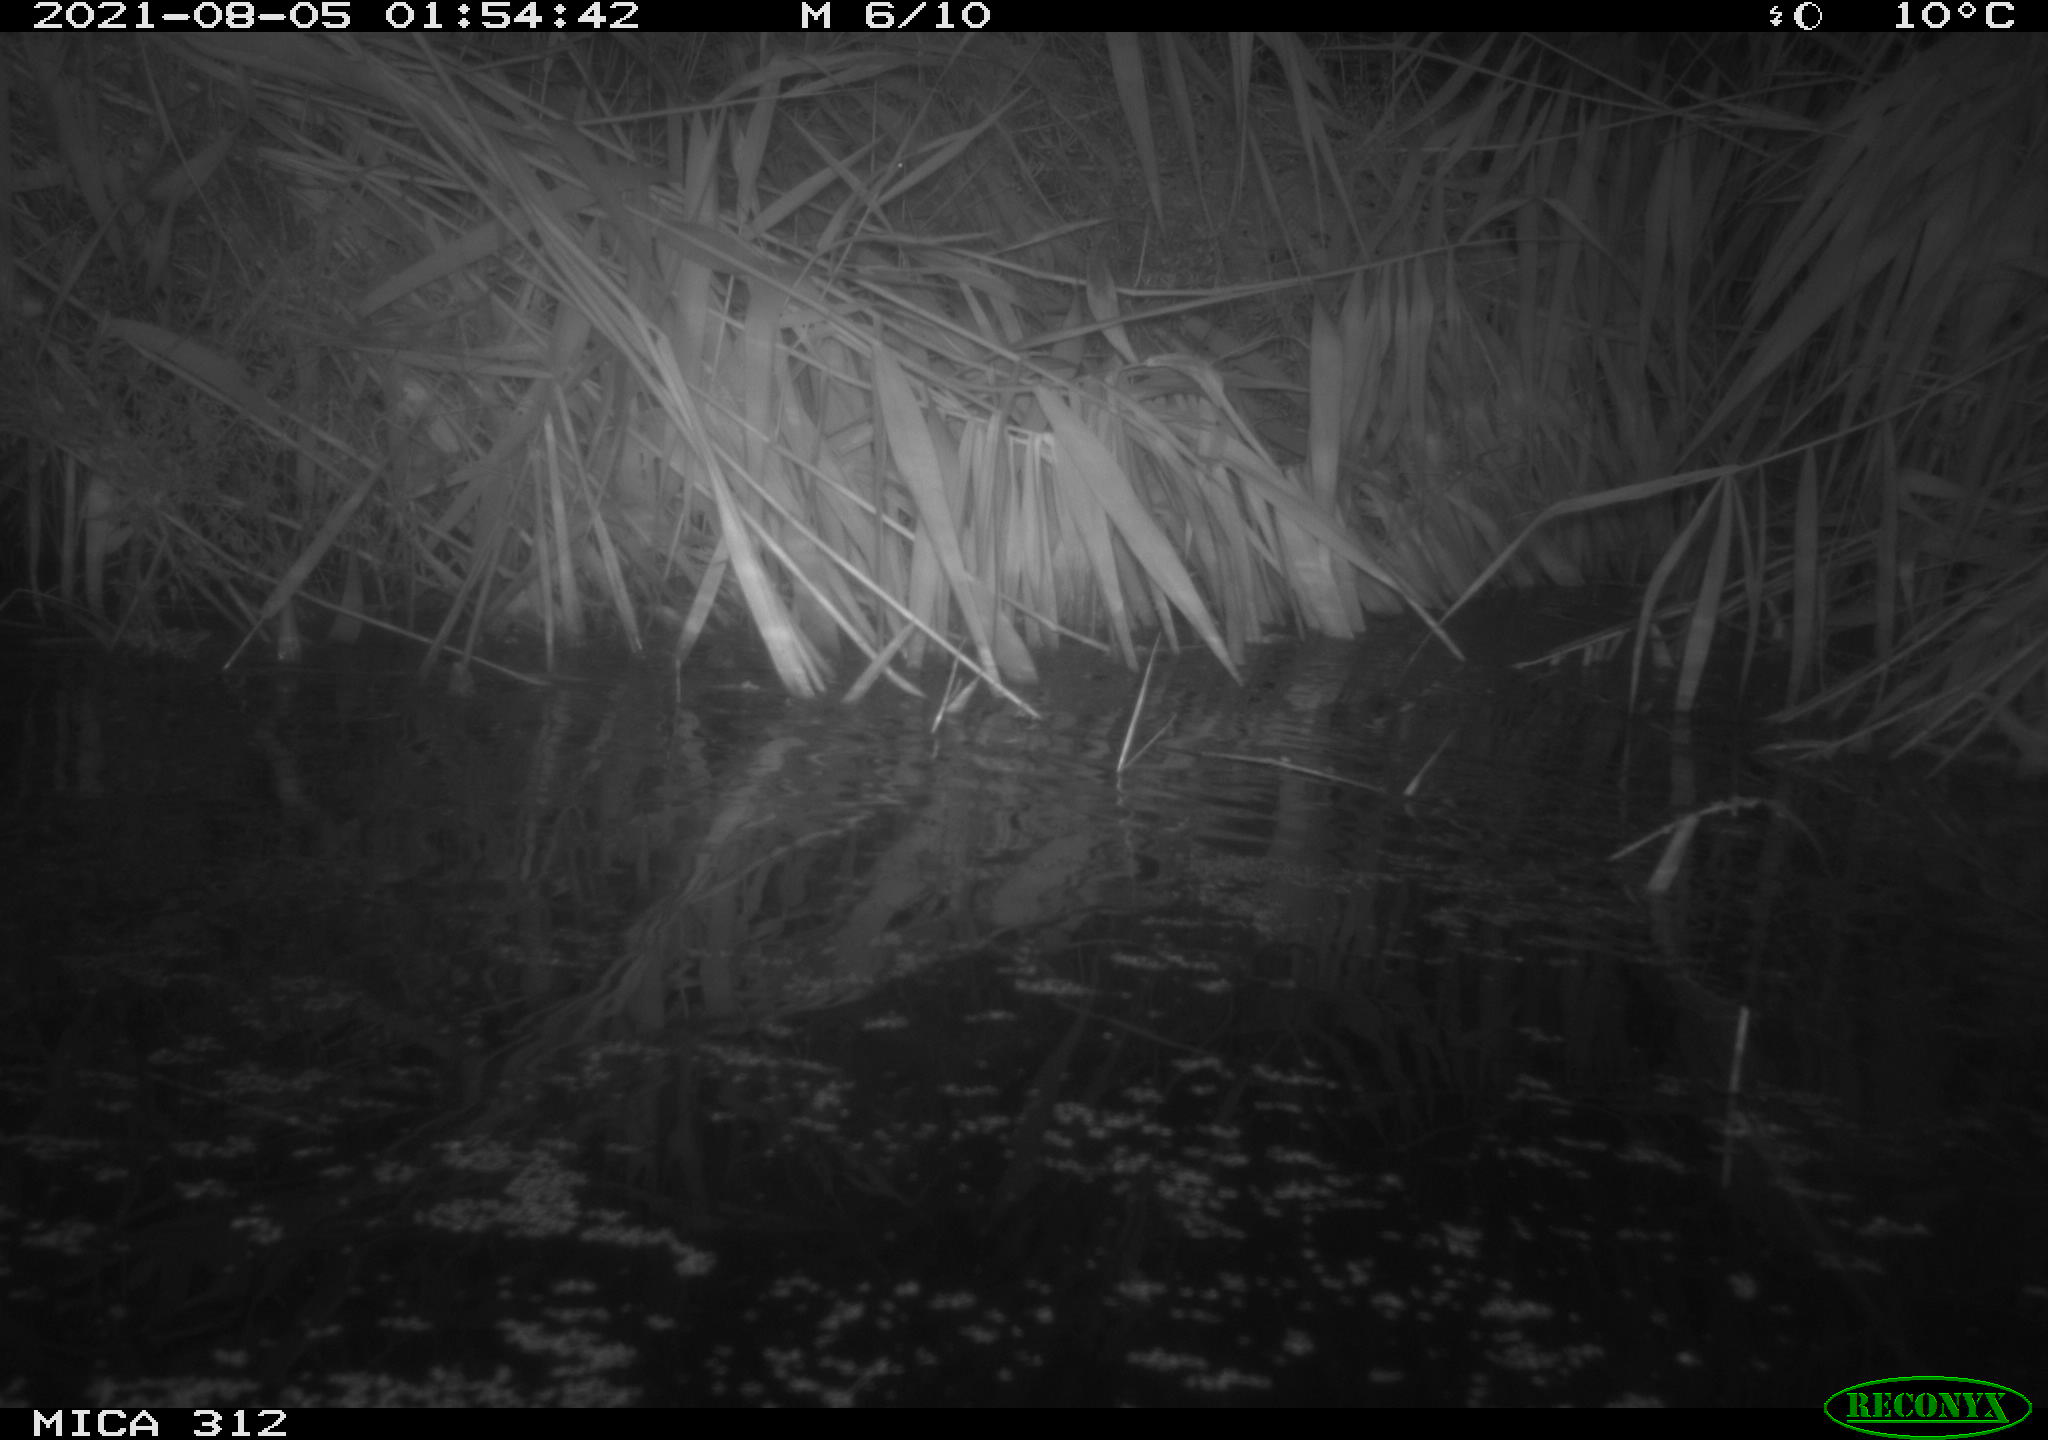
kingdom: Animalia
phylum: Chordata
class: Mammalia
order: Rodentia
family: Muridae
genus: Rattus
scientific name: Rattus norvegicus
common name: Brown rat
